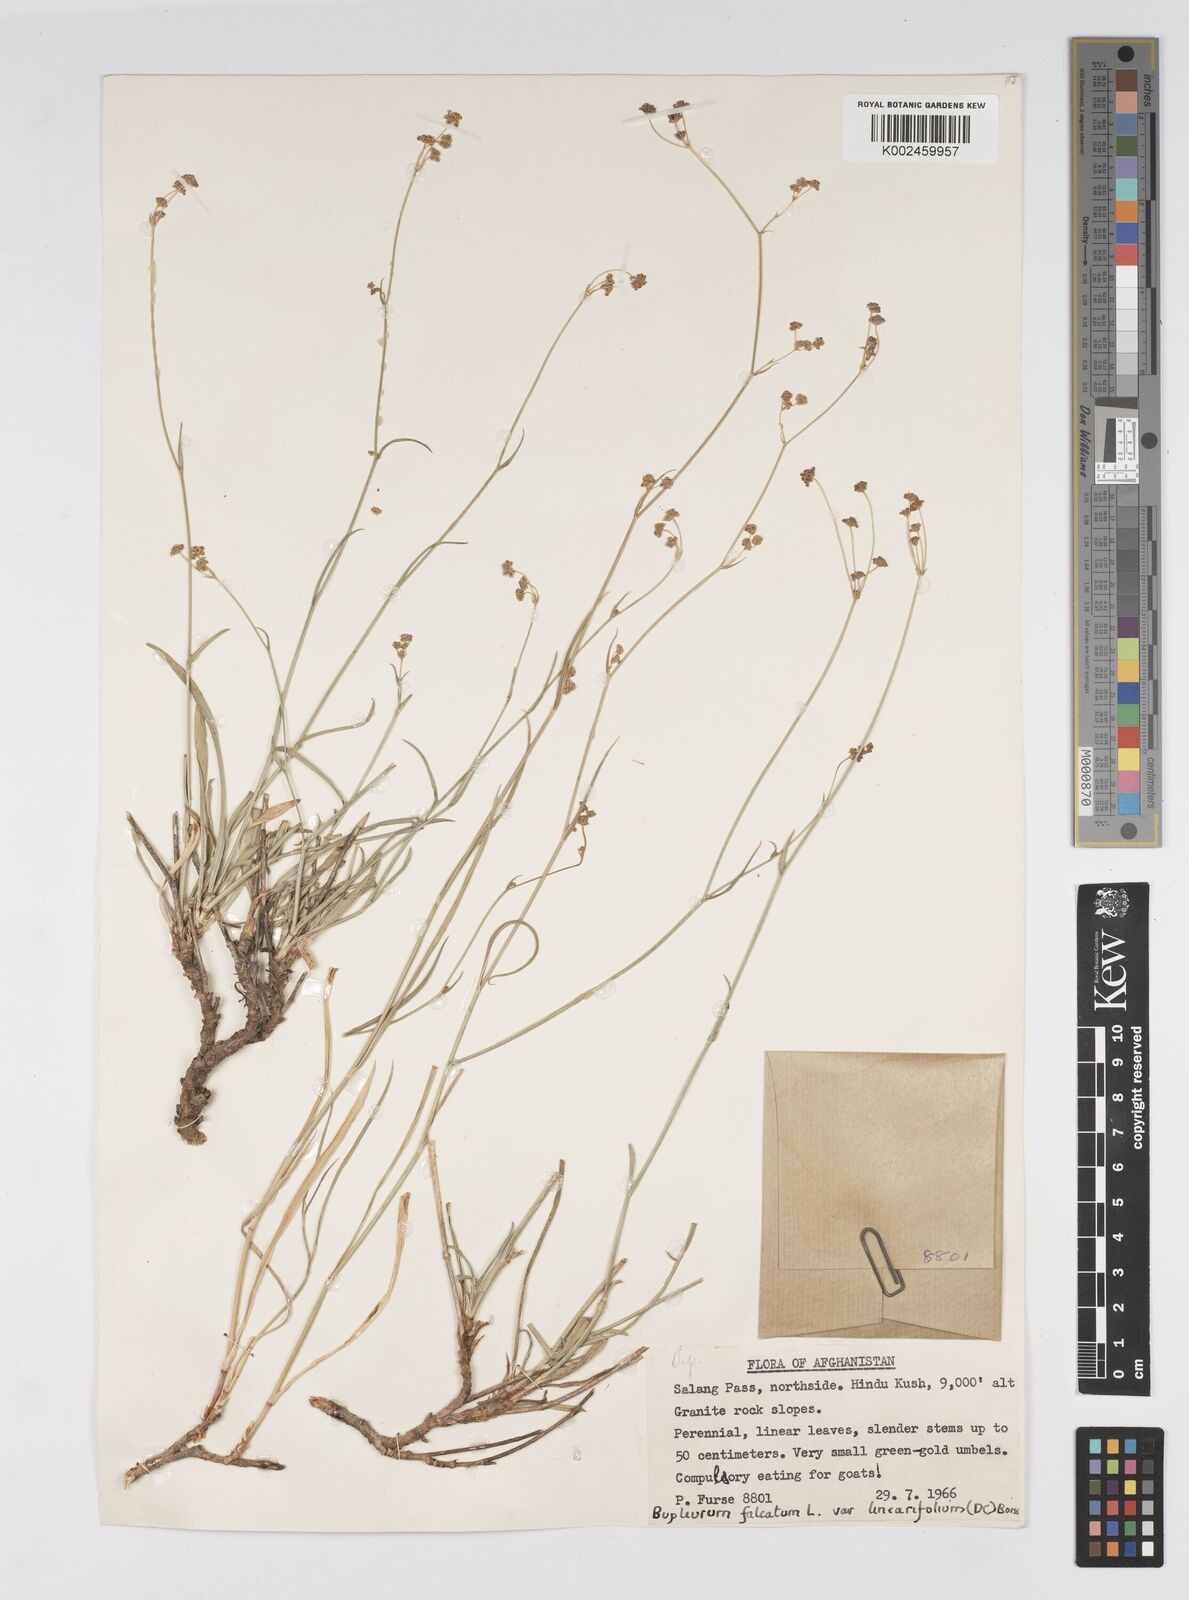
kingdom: Plantae
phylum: Tracheophyta
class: Magnoliopsida
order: Apiales
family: Apiaceae
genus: Bupleurum
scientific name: Bupleurum falcatum
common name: Sickle-leaved hare's-ear
